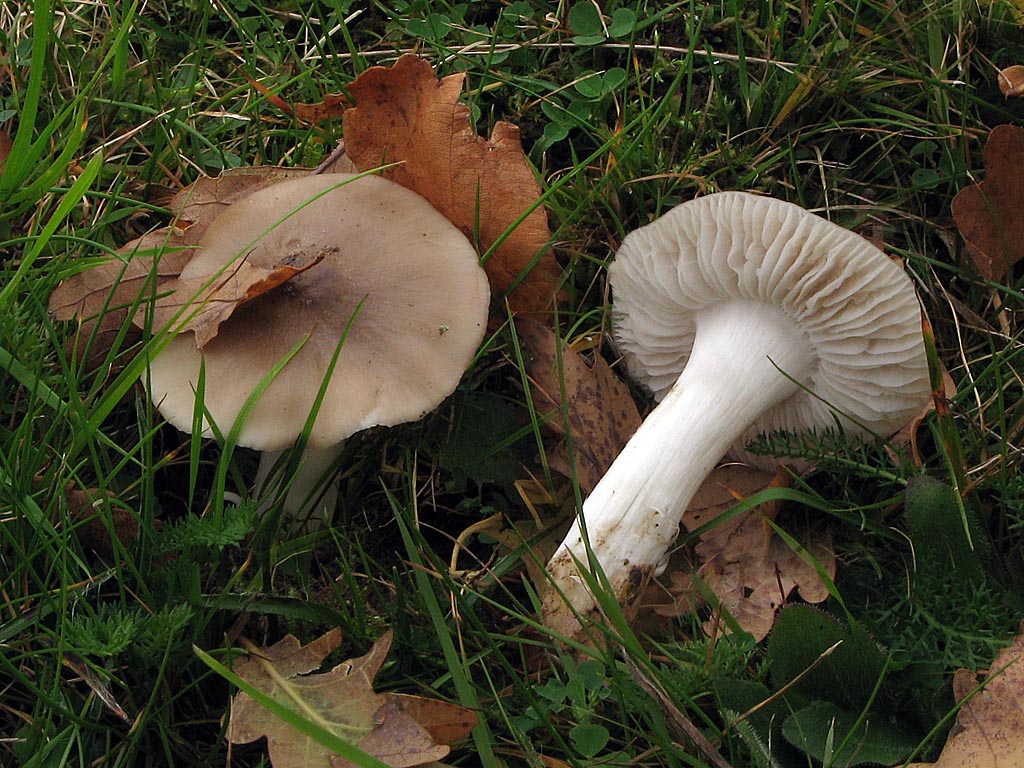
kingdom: Fungi
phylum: Basidiomycota
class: Agaricomycetes
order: Agaricales
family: Hygrophoraceae
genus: Cuphophyllus
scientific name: Cuphophyllus fornicatus
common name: gråbrun vokshat
